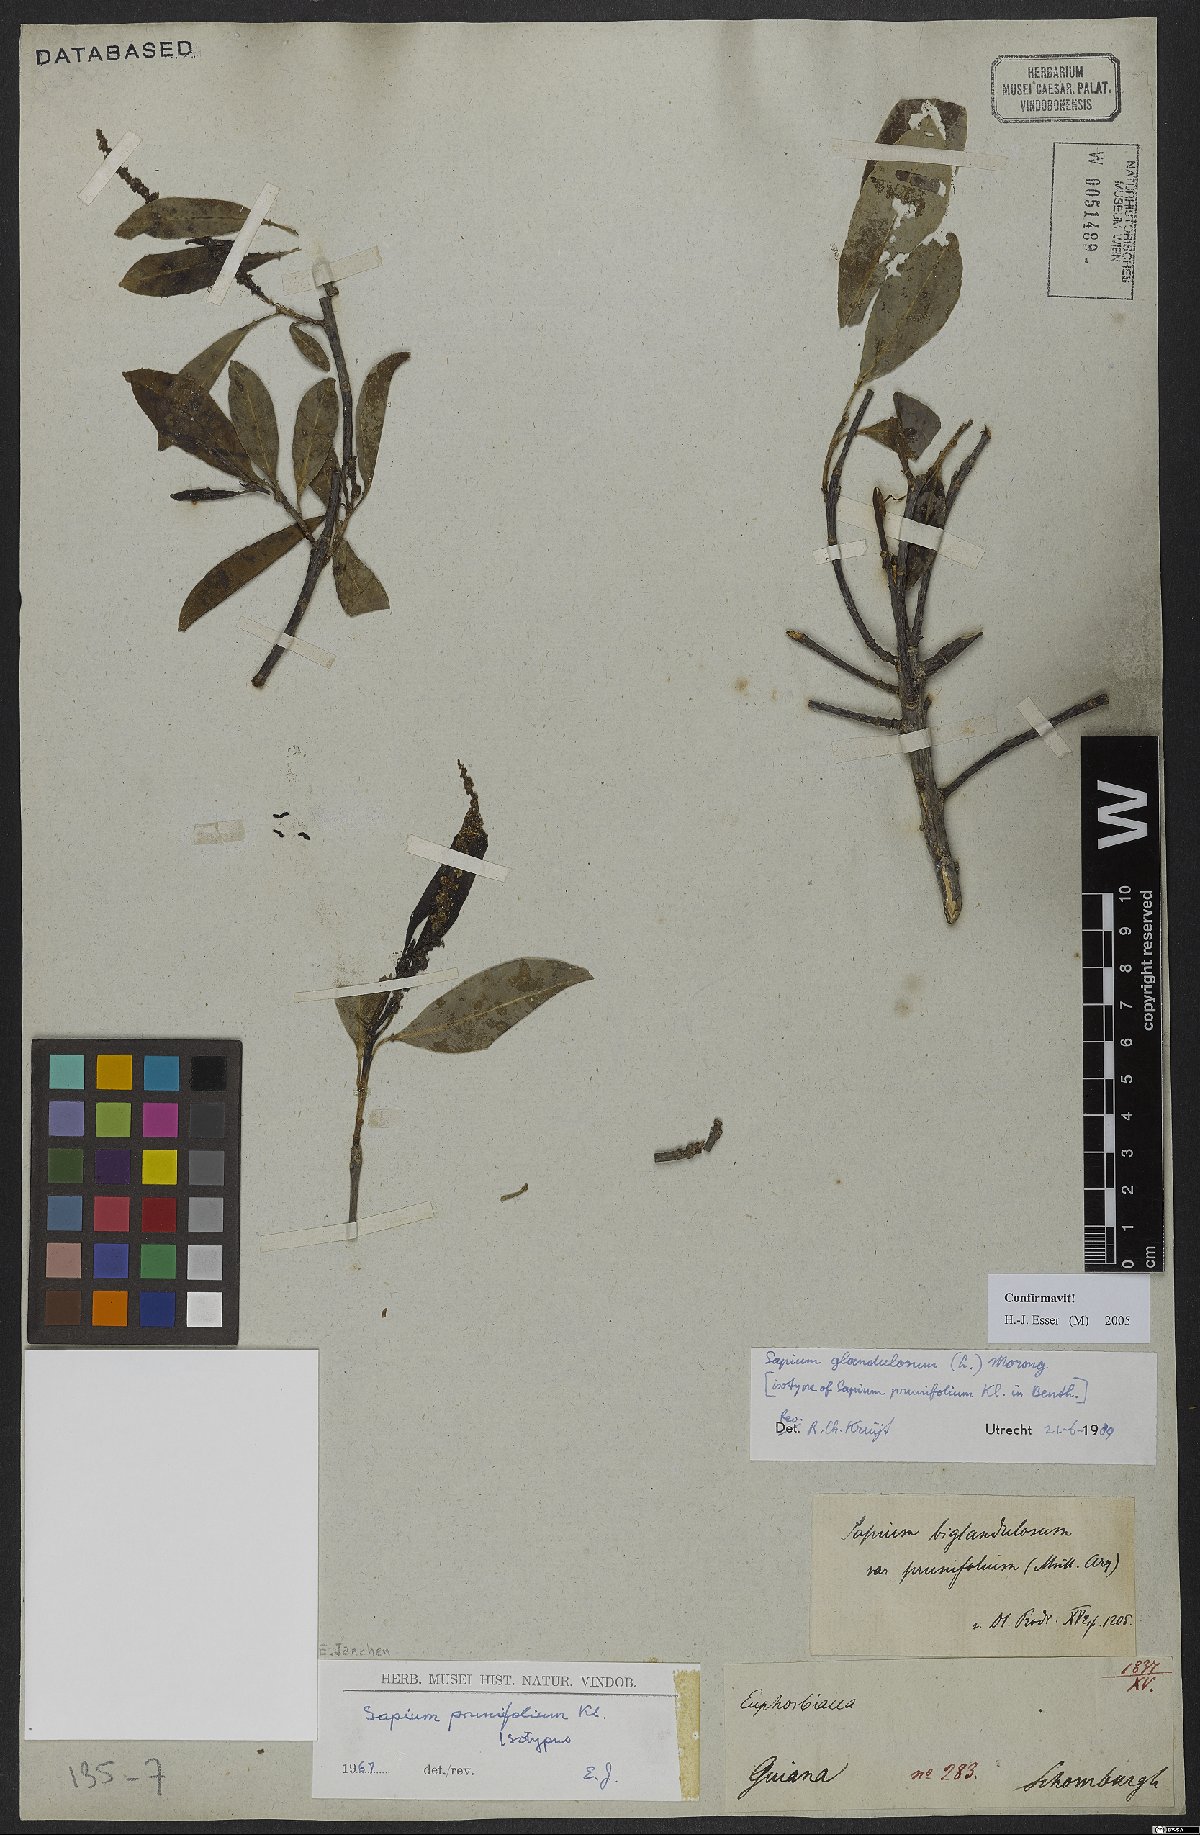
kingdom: Plantae
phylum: Tracheophyta
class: Magnoliopsida
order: Malpighiales
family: Euphorbiaceae
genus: Sapium
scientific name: Sapium glandulosum
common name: Milktree
